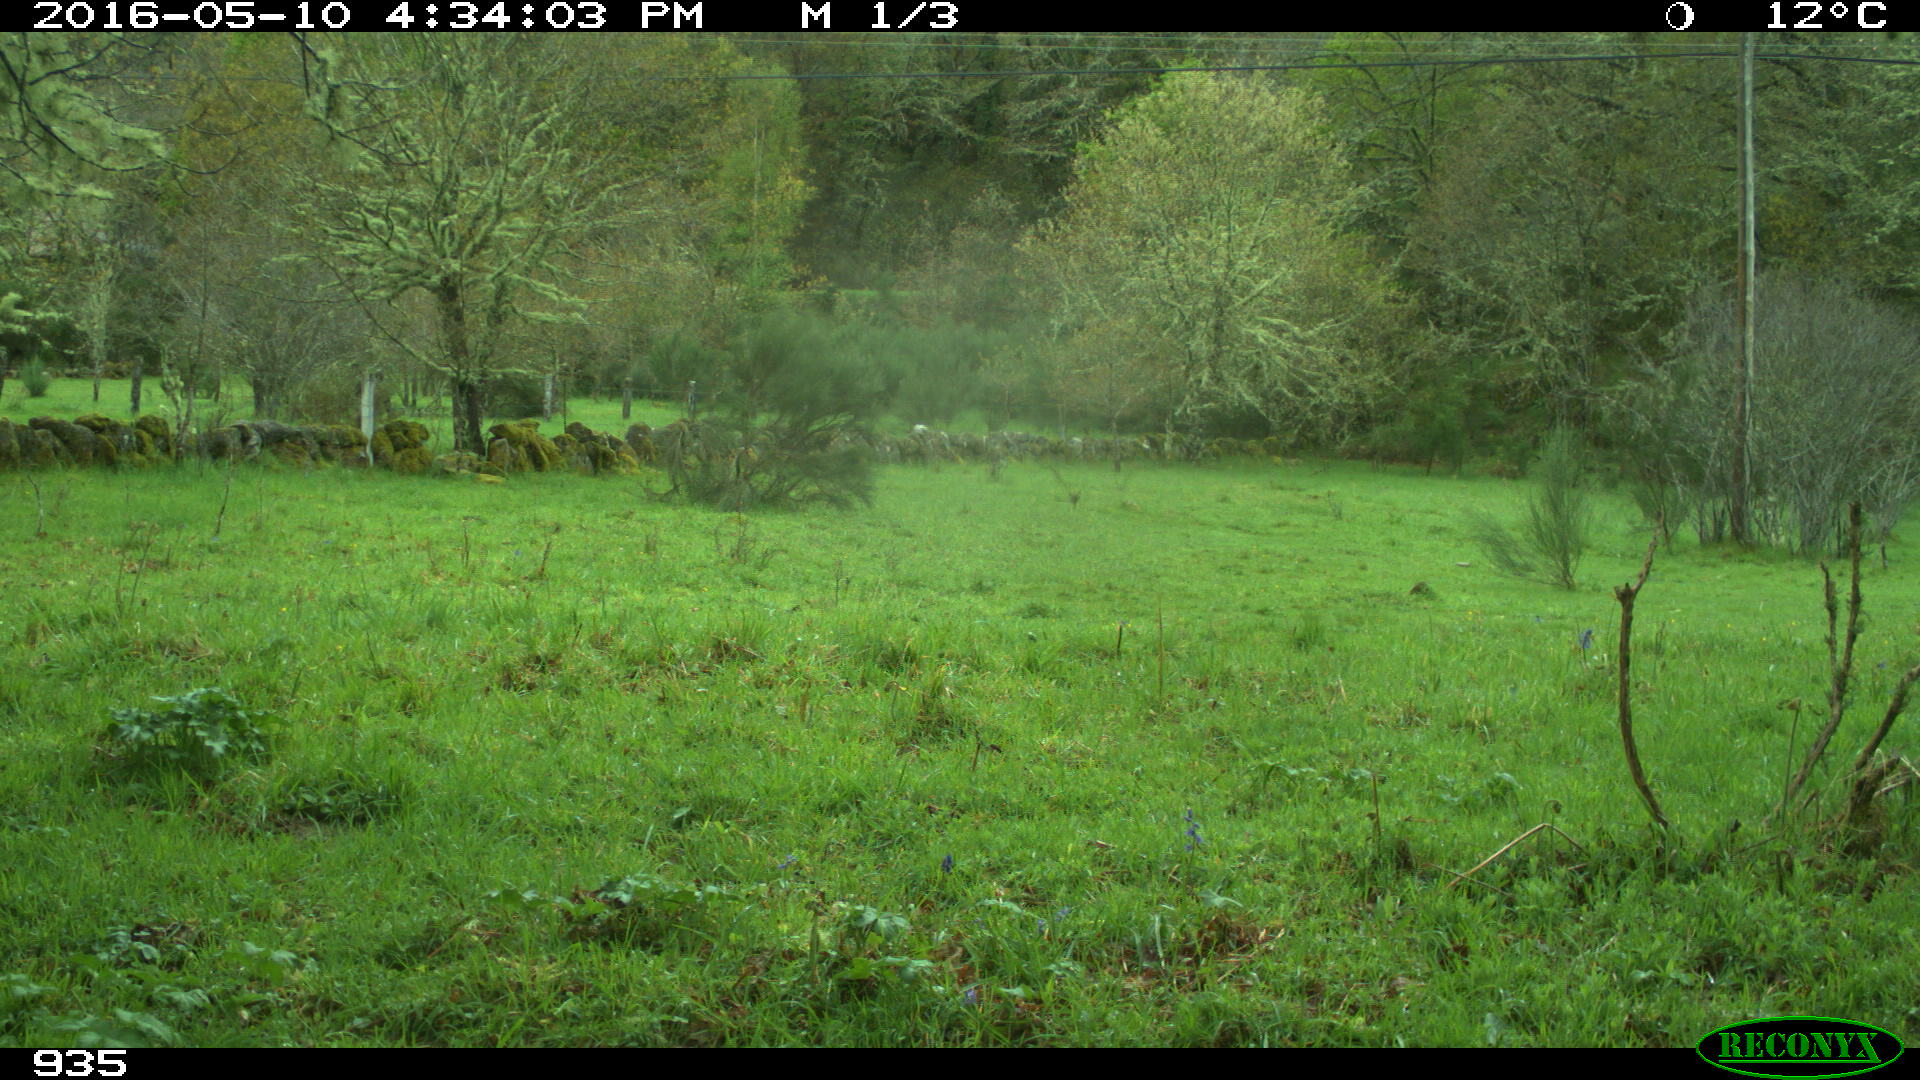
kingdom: Animalia
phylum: Chordata
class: Mammalia
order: Artiodactyla
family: Cervidae
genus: Capreolus
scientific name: Capreolus capreolus
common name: Western roe deer
